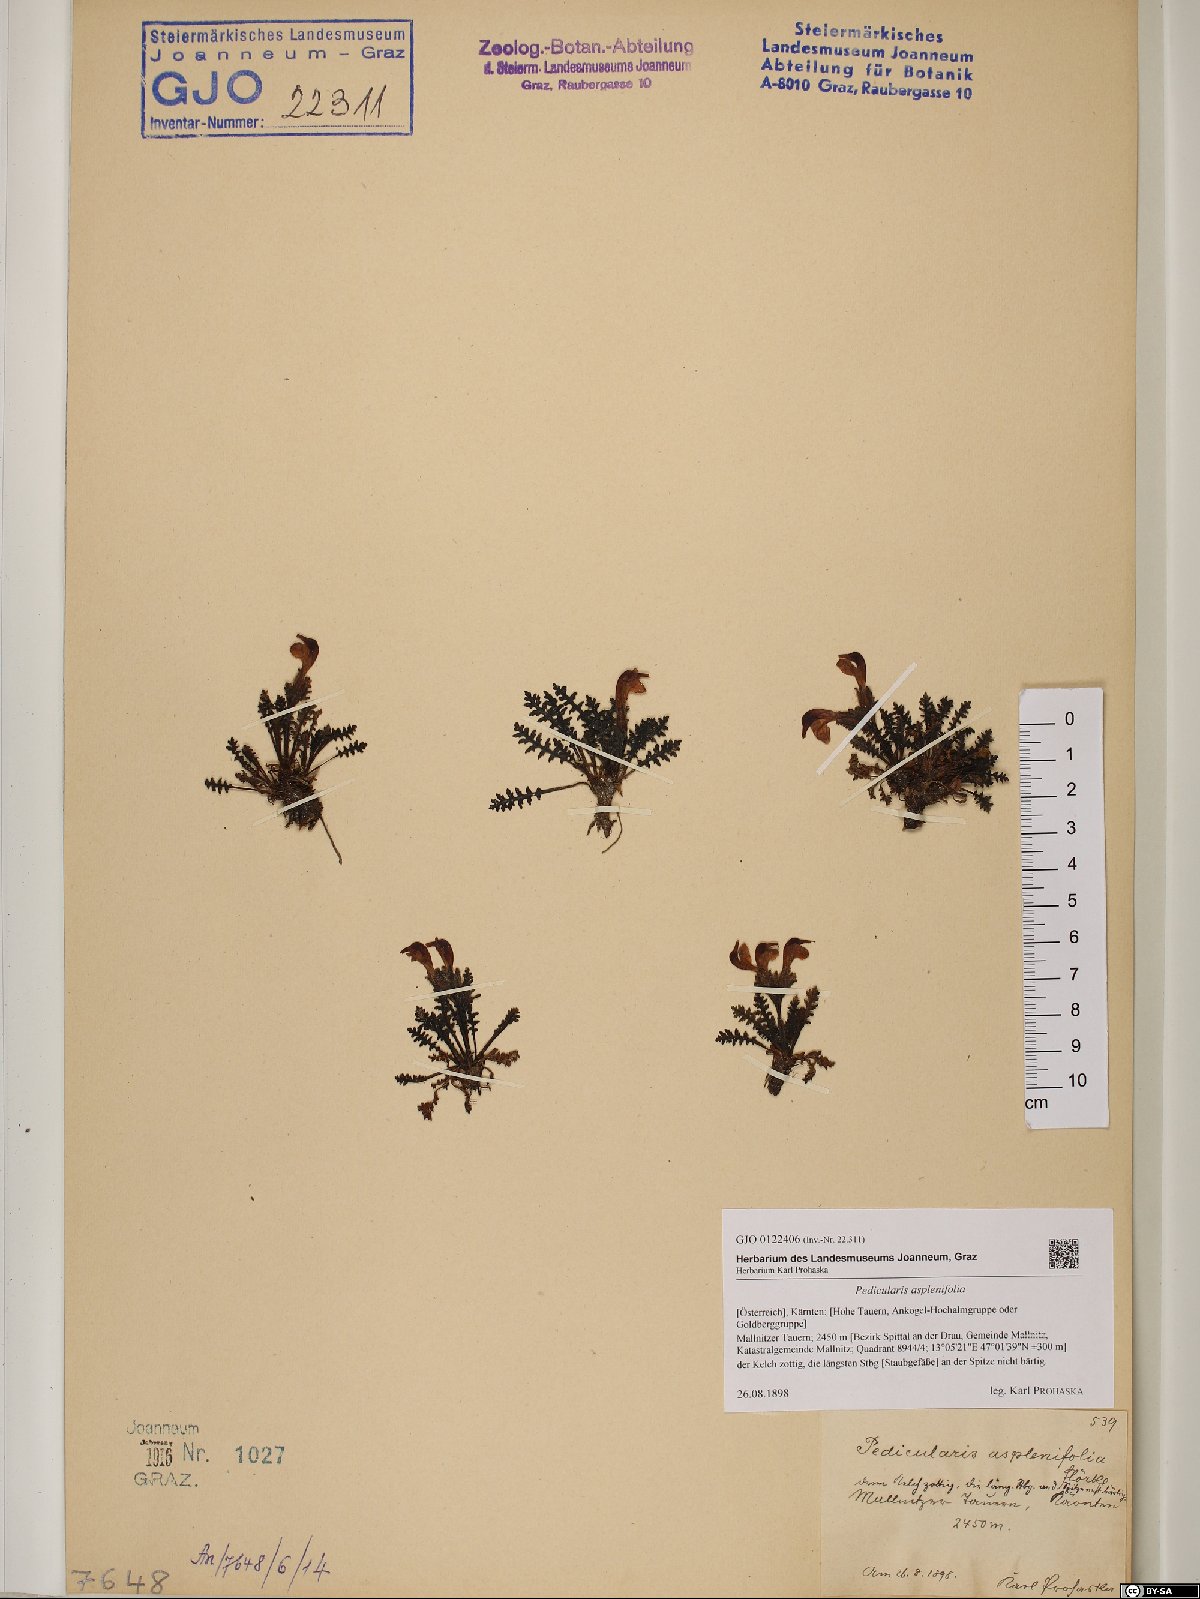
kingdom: Plantae
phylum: Tracheophyta
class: Magnoliopsida
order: Lamiales
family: Orobanchaceae
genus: Pedicularis
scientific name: Pedicularis asplenifolia
